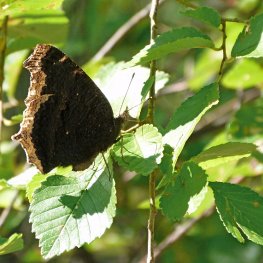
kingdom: Animalia
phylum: Arthropoda
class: Insecta
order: Lepidoptera
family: Nymphalidae
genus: Nymphalis
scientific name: Nymphalis antiopa
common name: Mourning Cloak
